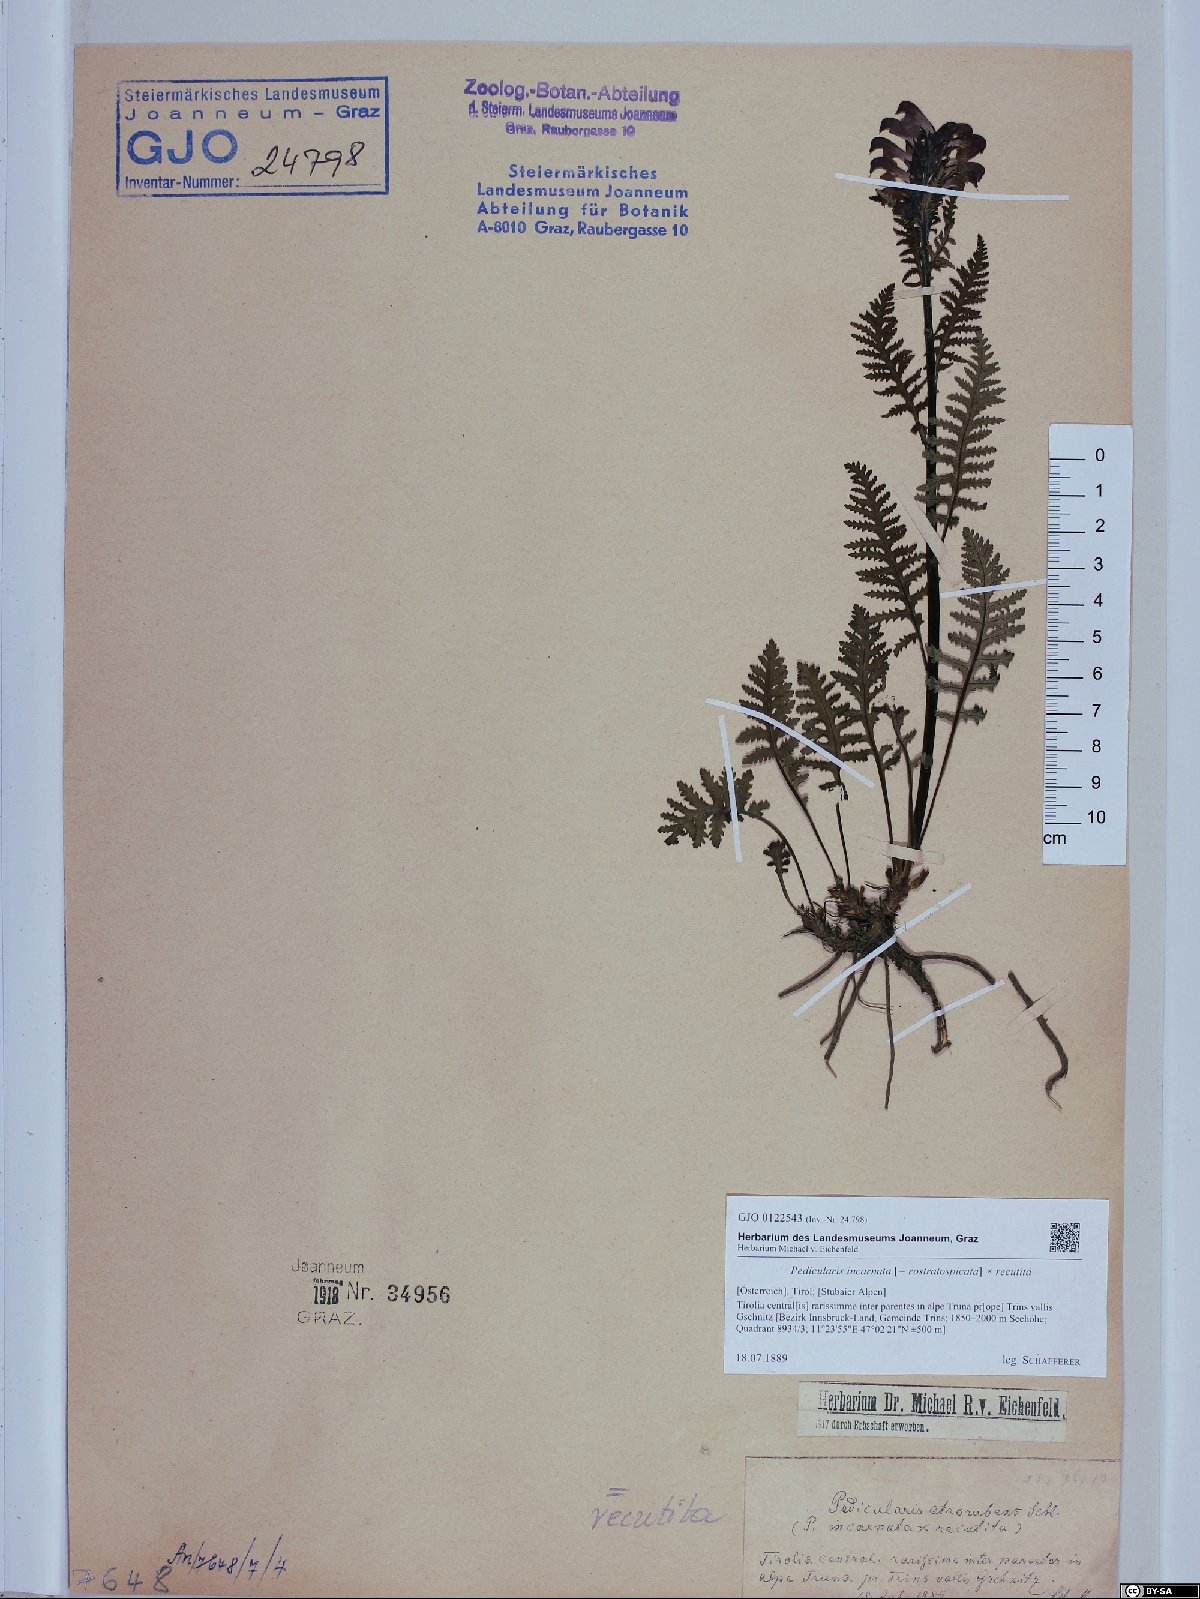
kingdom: Plantae
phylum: Tracheophyta
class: Magnoliopsida
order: Lamiales
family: Scrophulariaceae
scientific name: Scrophulariaceae
